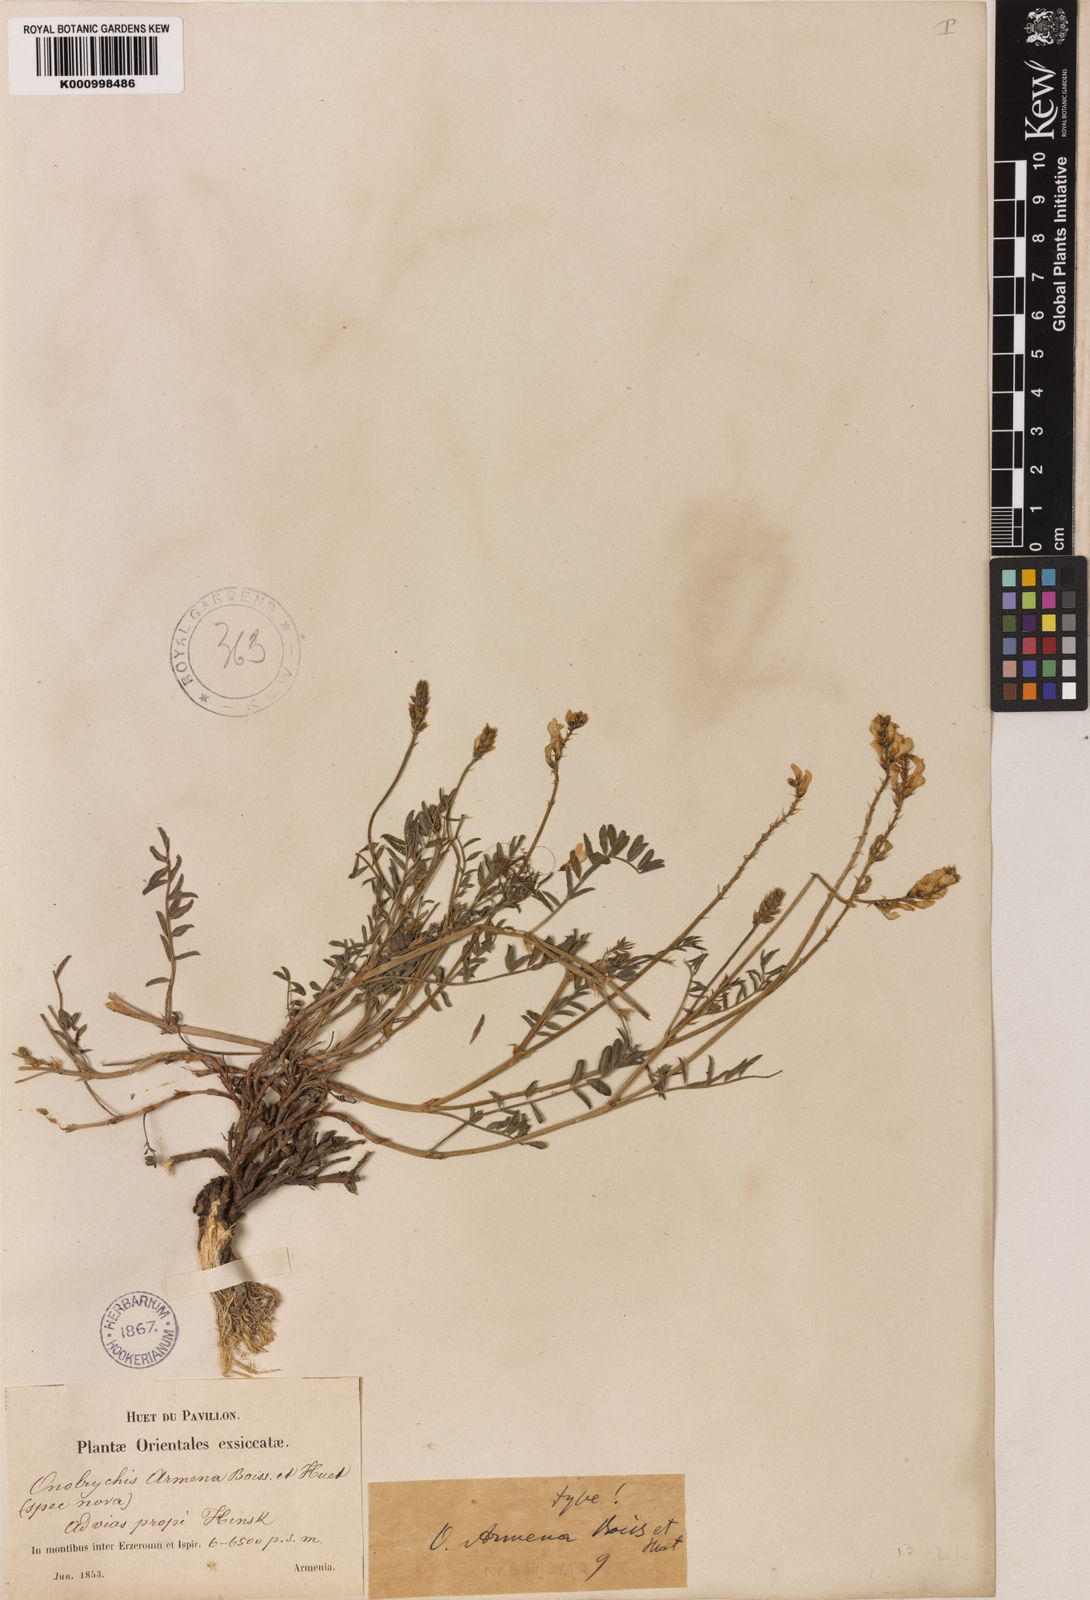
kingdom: Plantae
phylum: Tracheophyta
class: Magnoliopsida
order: Fabales
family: Fabaceae
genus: Onobrychis
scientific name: Onobrychis arenaria
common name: Sand esparcet
